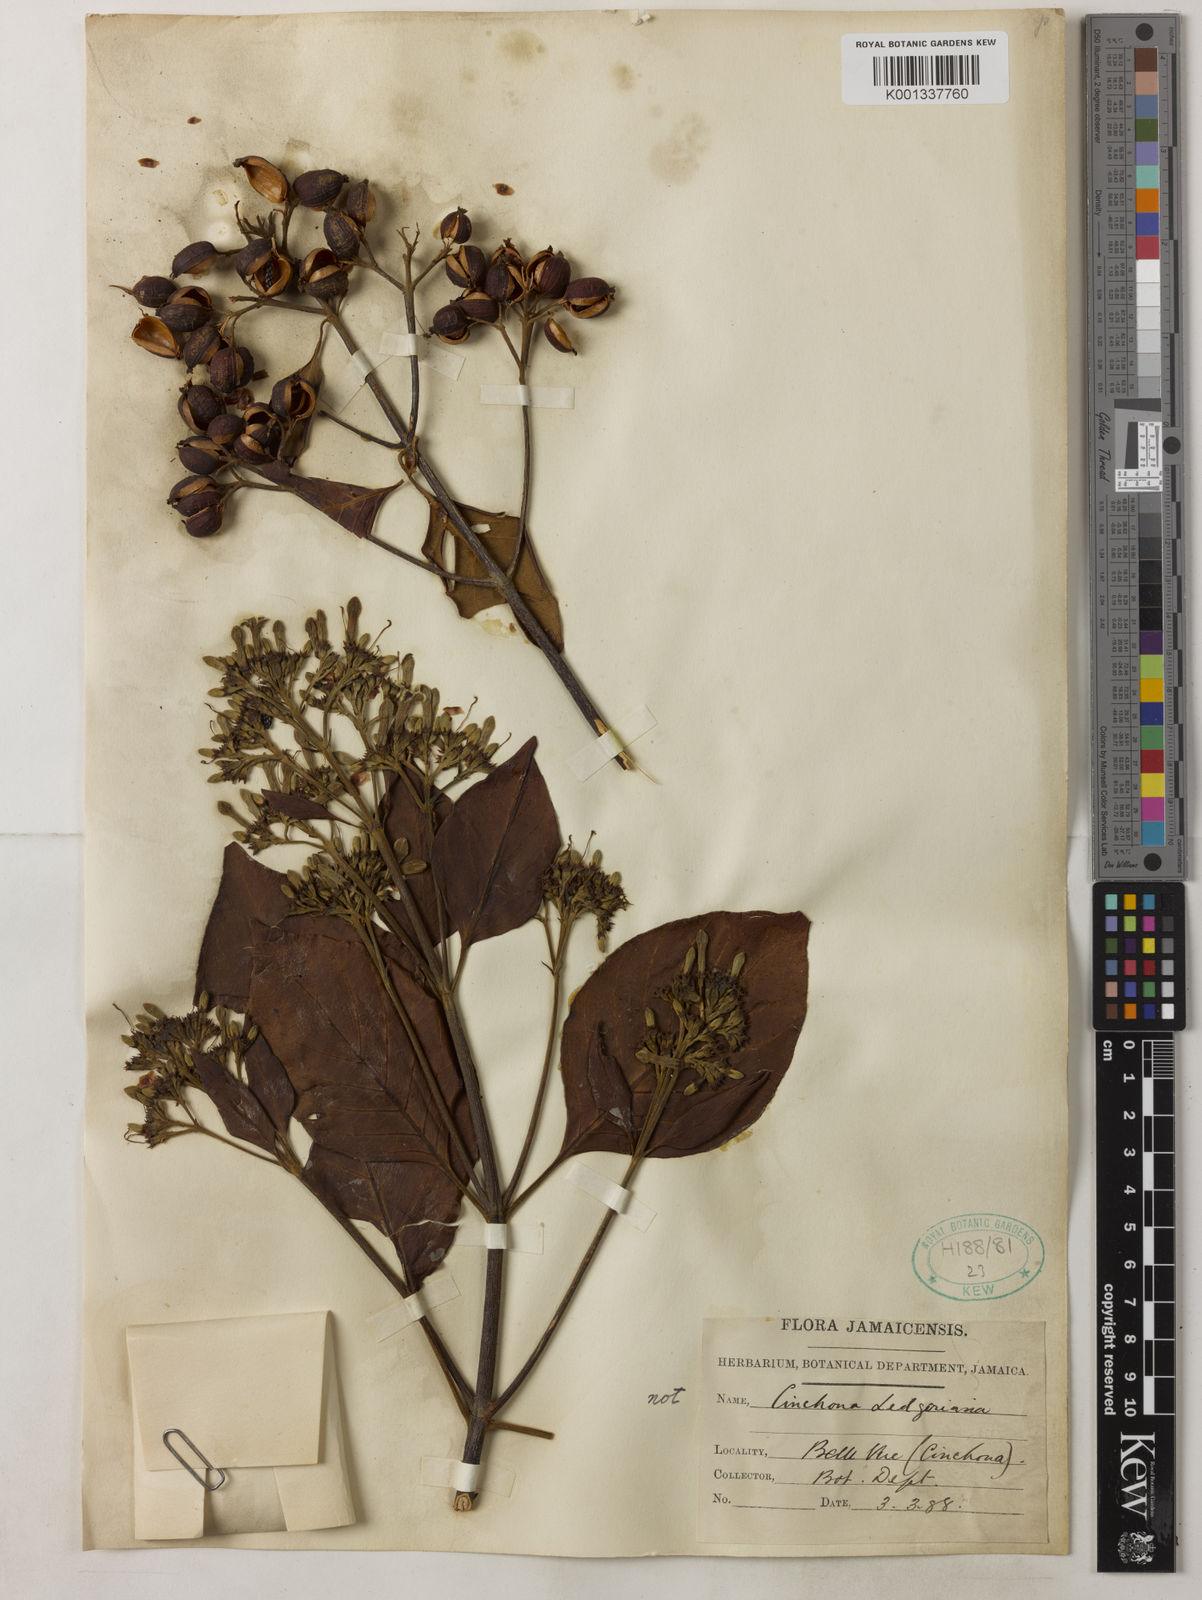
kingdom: Plantae
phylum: Tracheophyta
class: Magnoliopsida
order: Gentianales
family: Rubiaceae
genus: Cinchona
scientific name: Cinchona calisaya
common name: Ledgerbark
